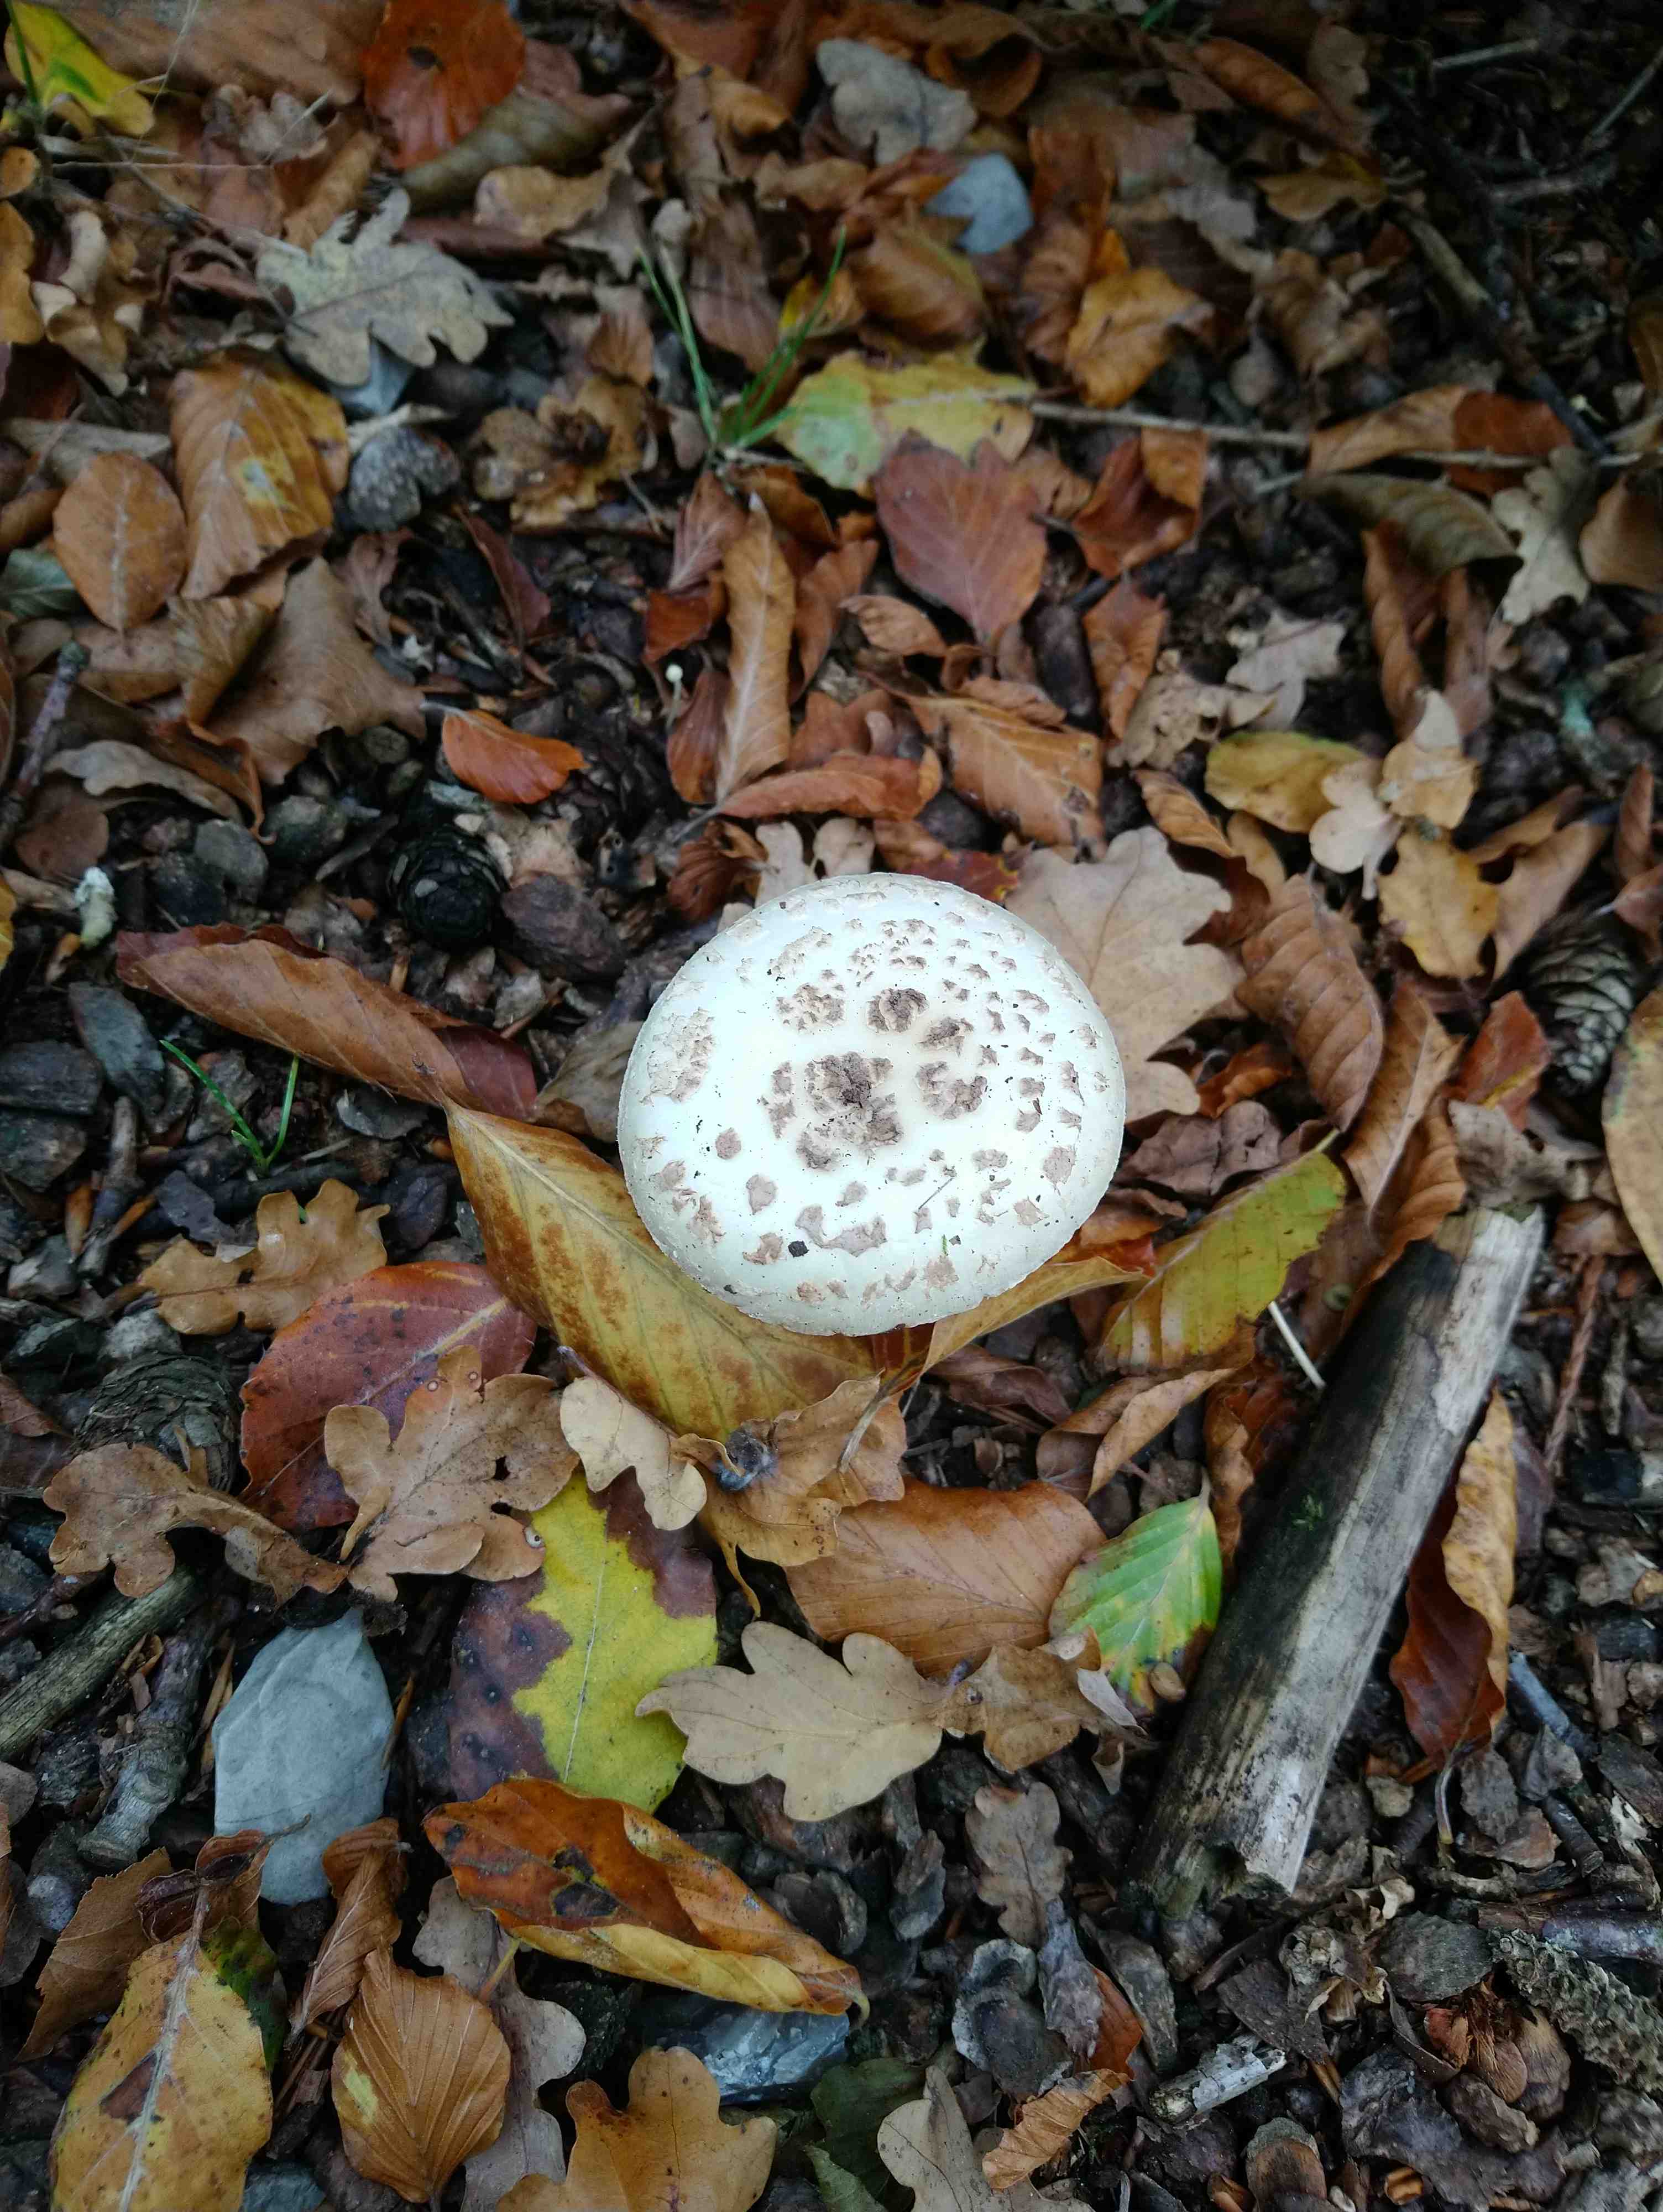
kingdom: Fungi
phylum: Basidiomycota
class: Agaricomycetes
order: Agaricales
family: Amanitaceae
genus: Amanita
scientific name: Amanita citrina
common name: False death-cap
